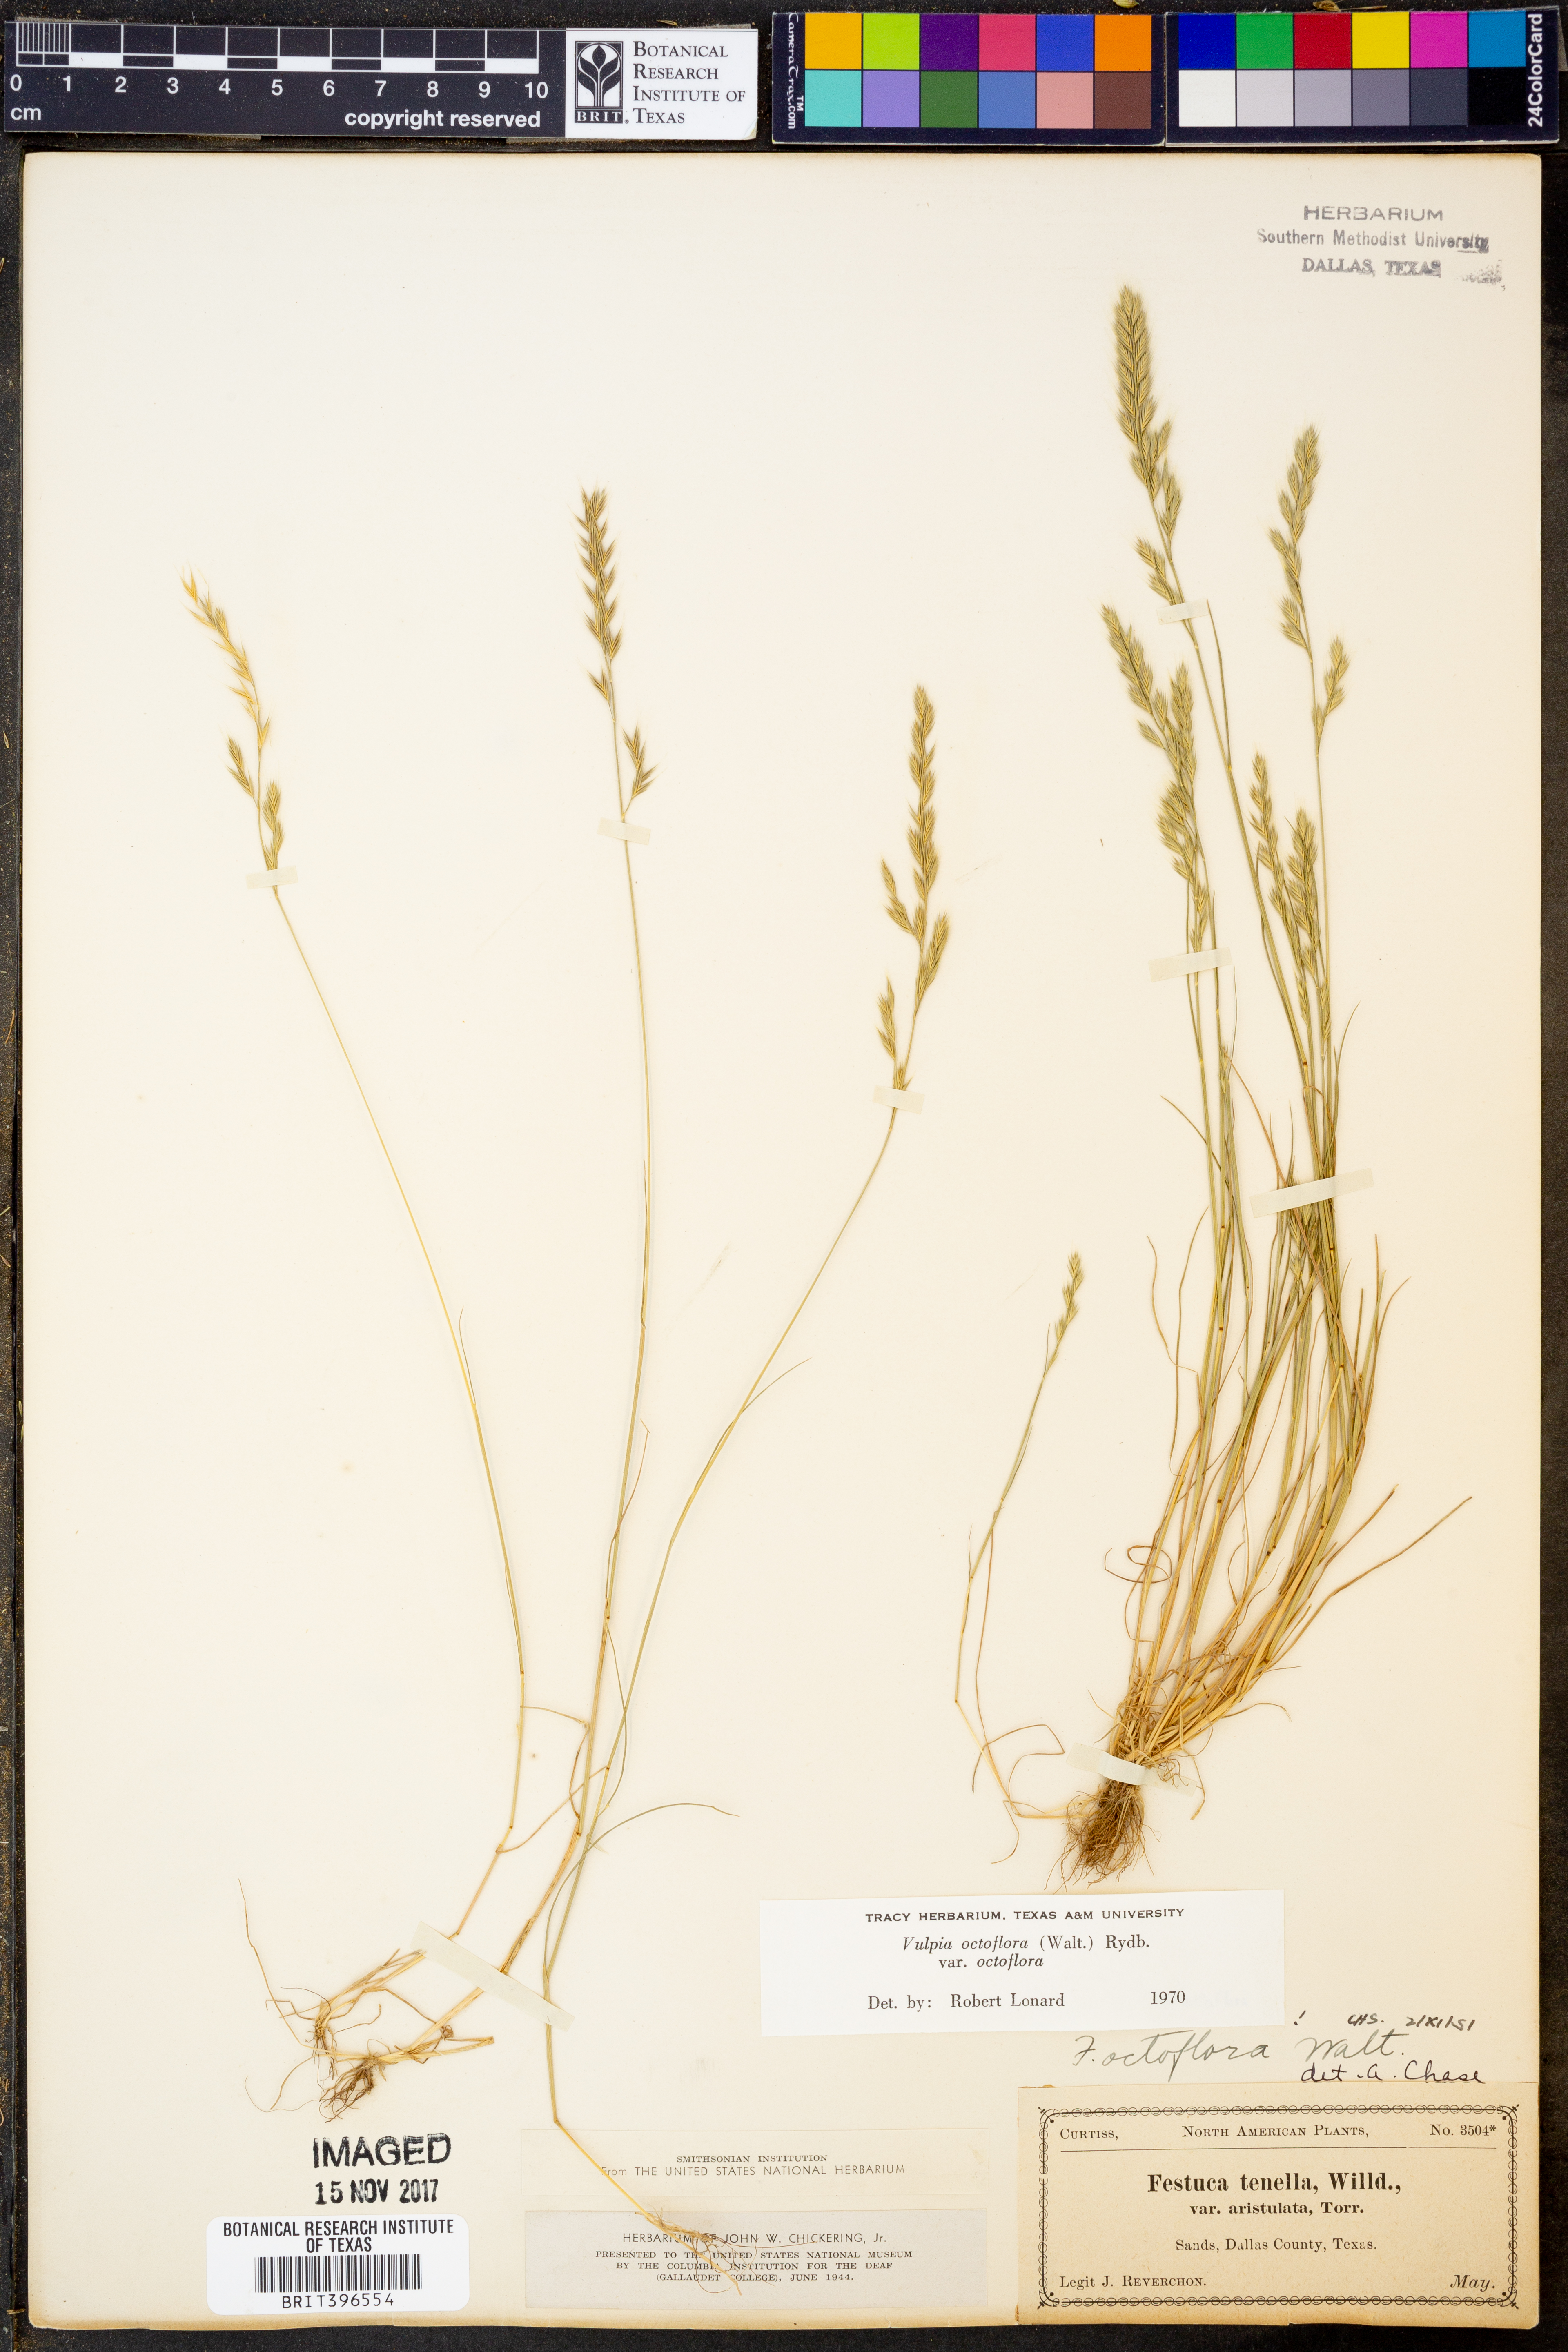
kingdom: Plantae
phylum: Tracheophyta
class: Liliopsida
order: Poales
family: Poaceae
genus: Festuca
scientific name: Festuca octoflora
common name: Sixweeks grass
